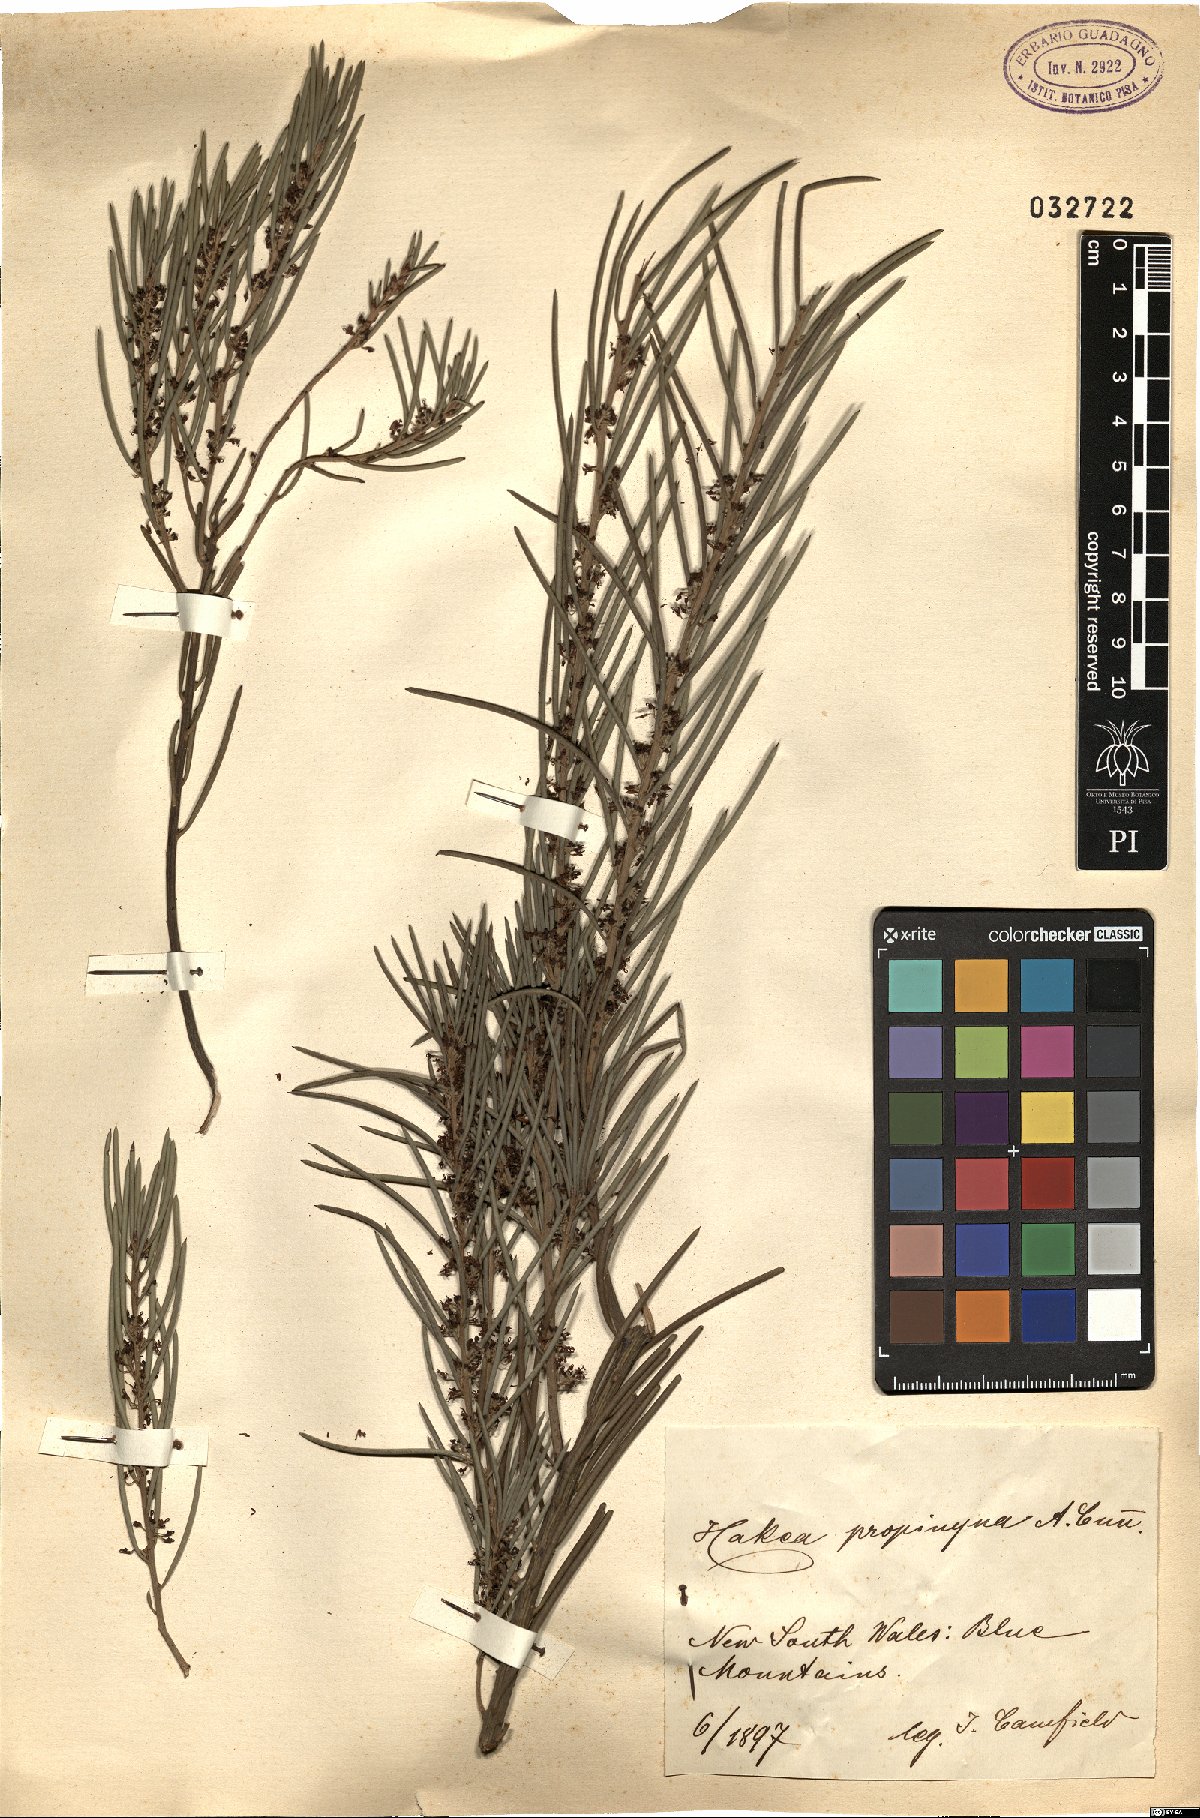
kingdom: Plantae
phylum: Tracheophyta
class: Magnoliopsida
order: Proteales
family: Proteaceae
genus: Hakea
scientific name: Hakea propinqua
